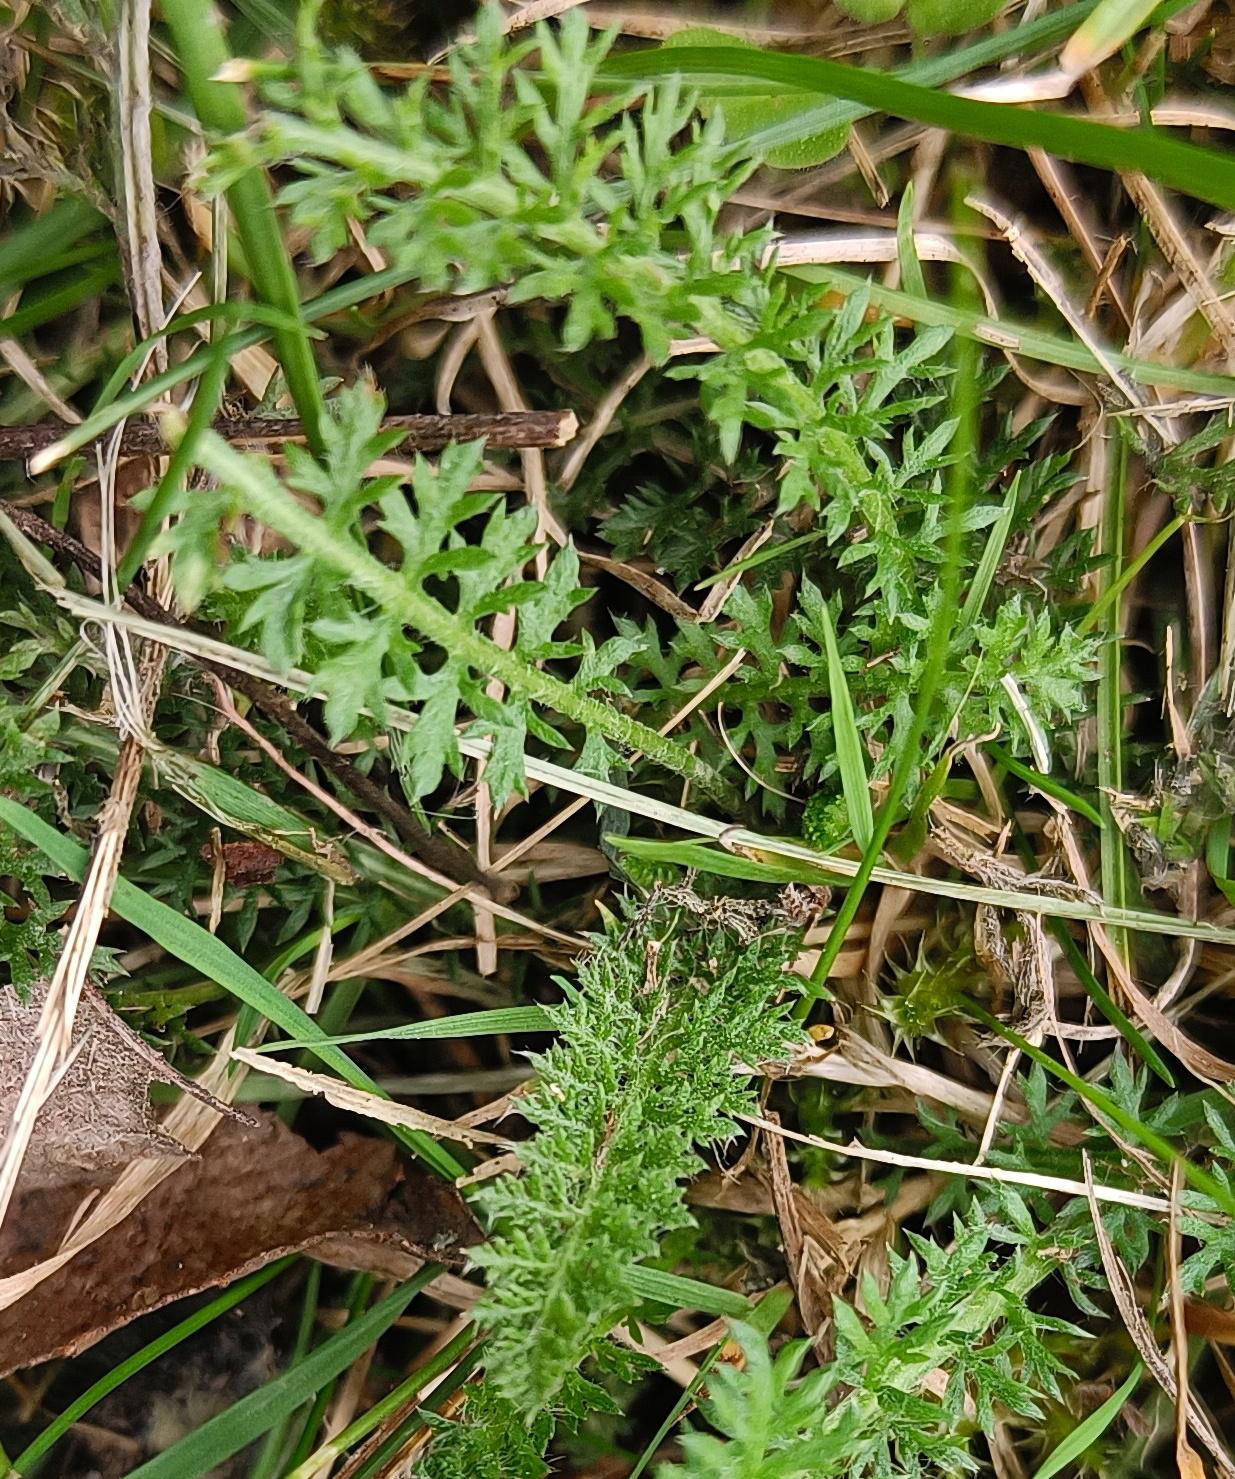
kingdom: Plantae
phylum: Tracheophyta
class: Magnoliopsida
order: Asterales
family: Asteraceae
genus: Achillea
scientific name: Achillea millefolium
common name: Almindelig røllike
